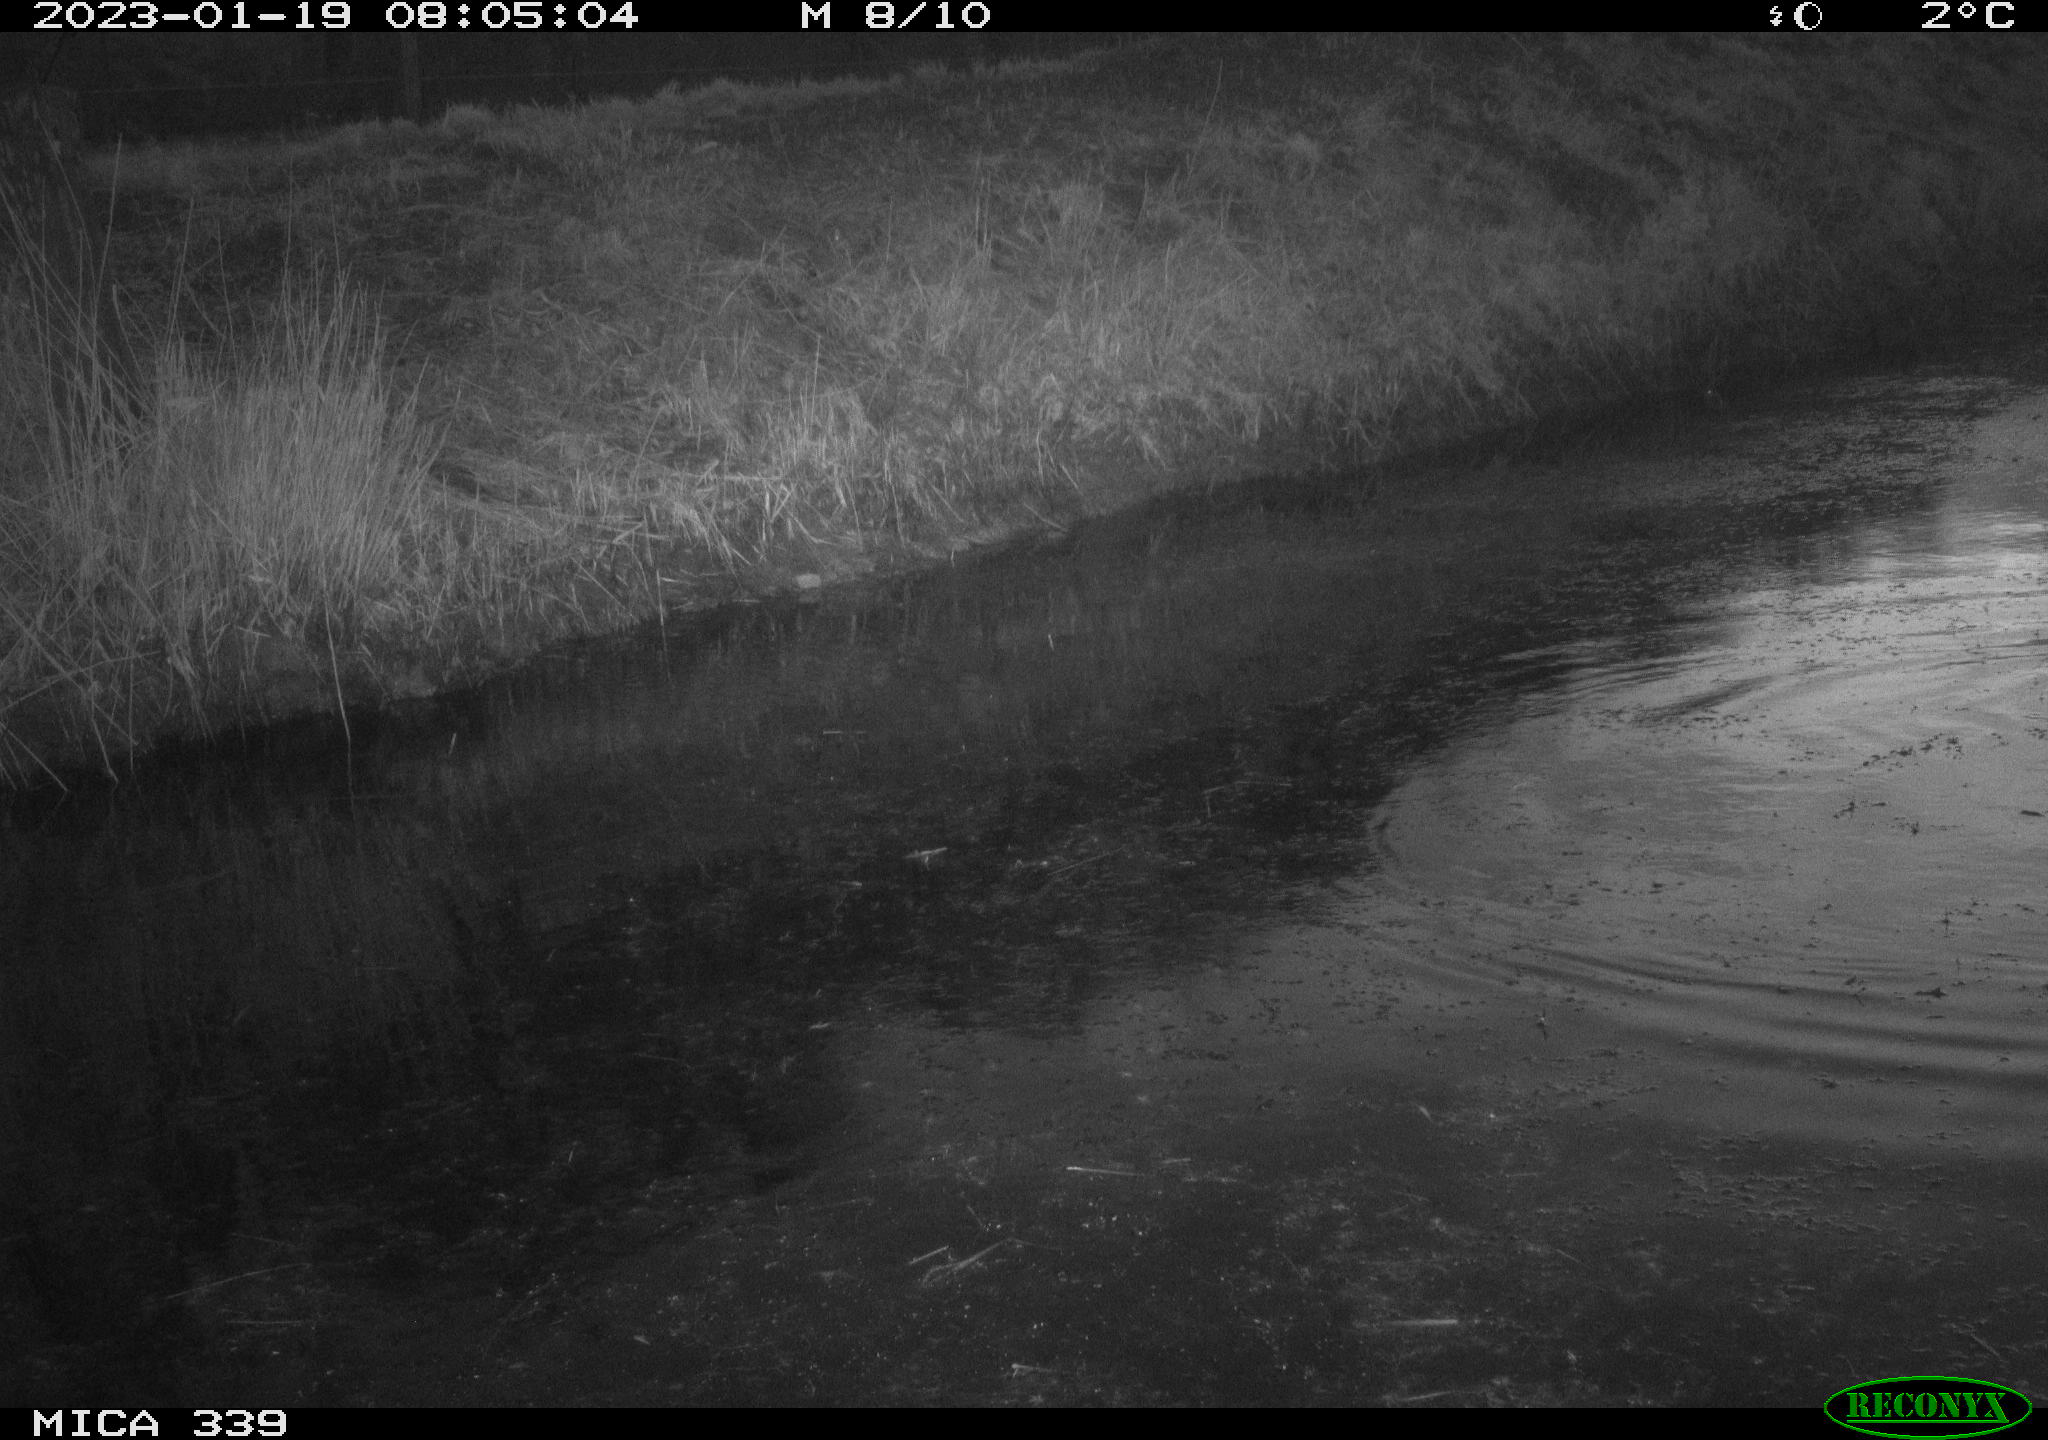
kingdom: Animalia
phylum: Chordata
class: Aves
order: Suliformes
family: Phalacrocoracidae
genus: Phalacrocorax
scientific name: Phalacrocorax carbo
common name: Great cormorant
